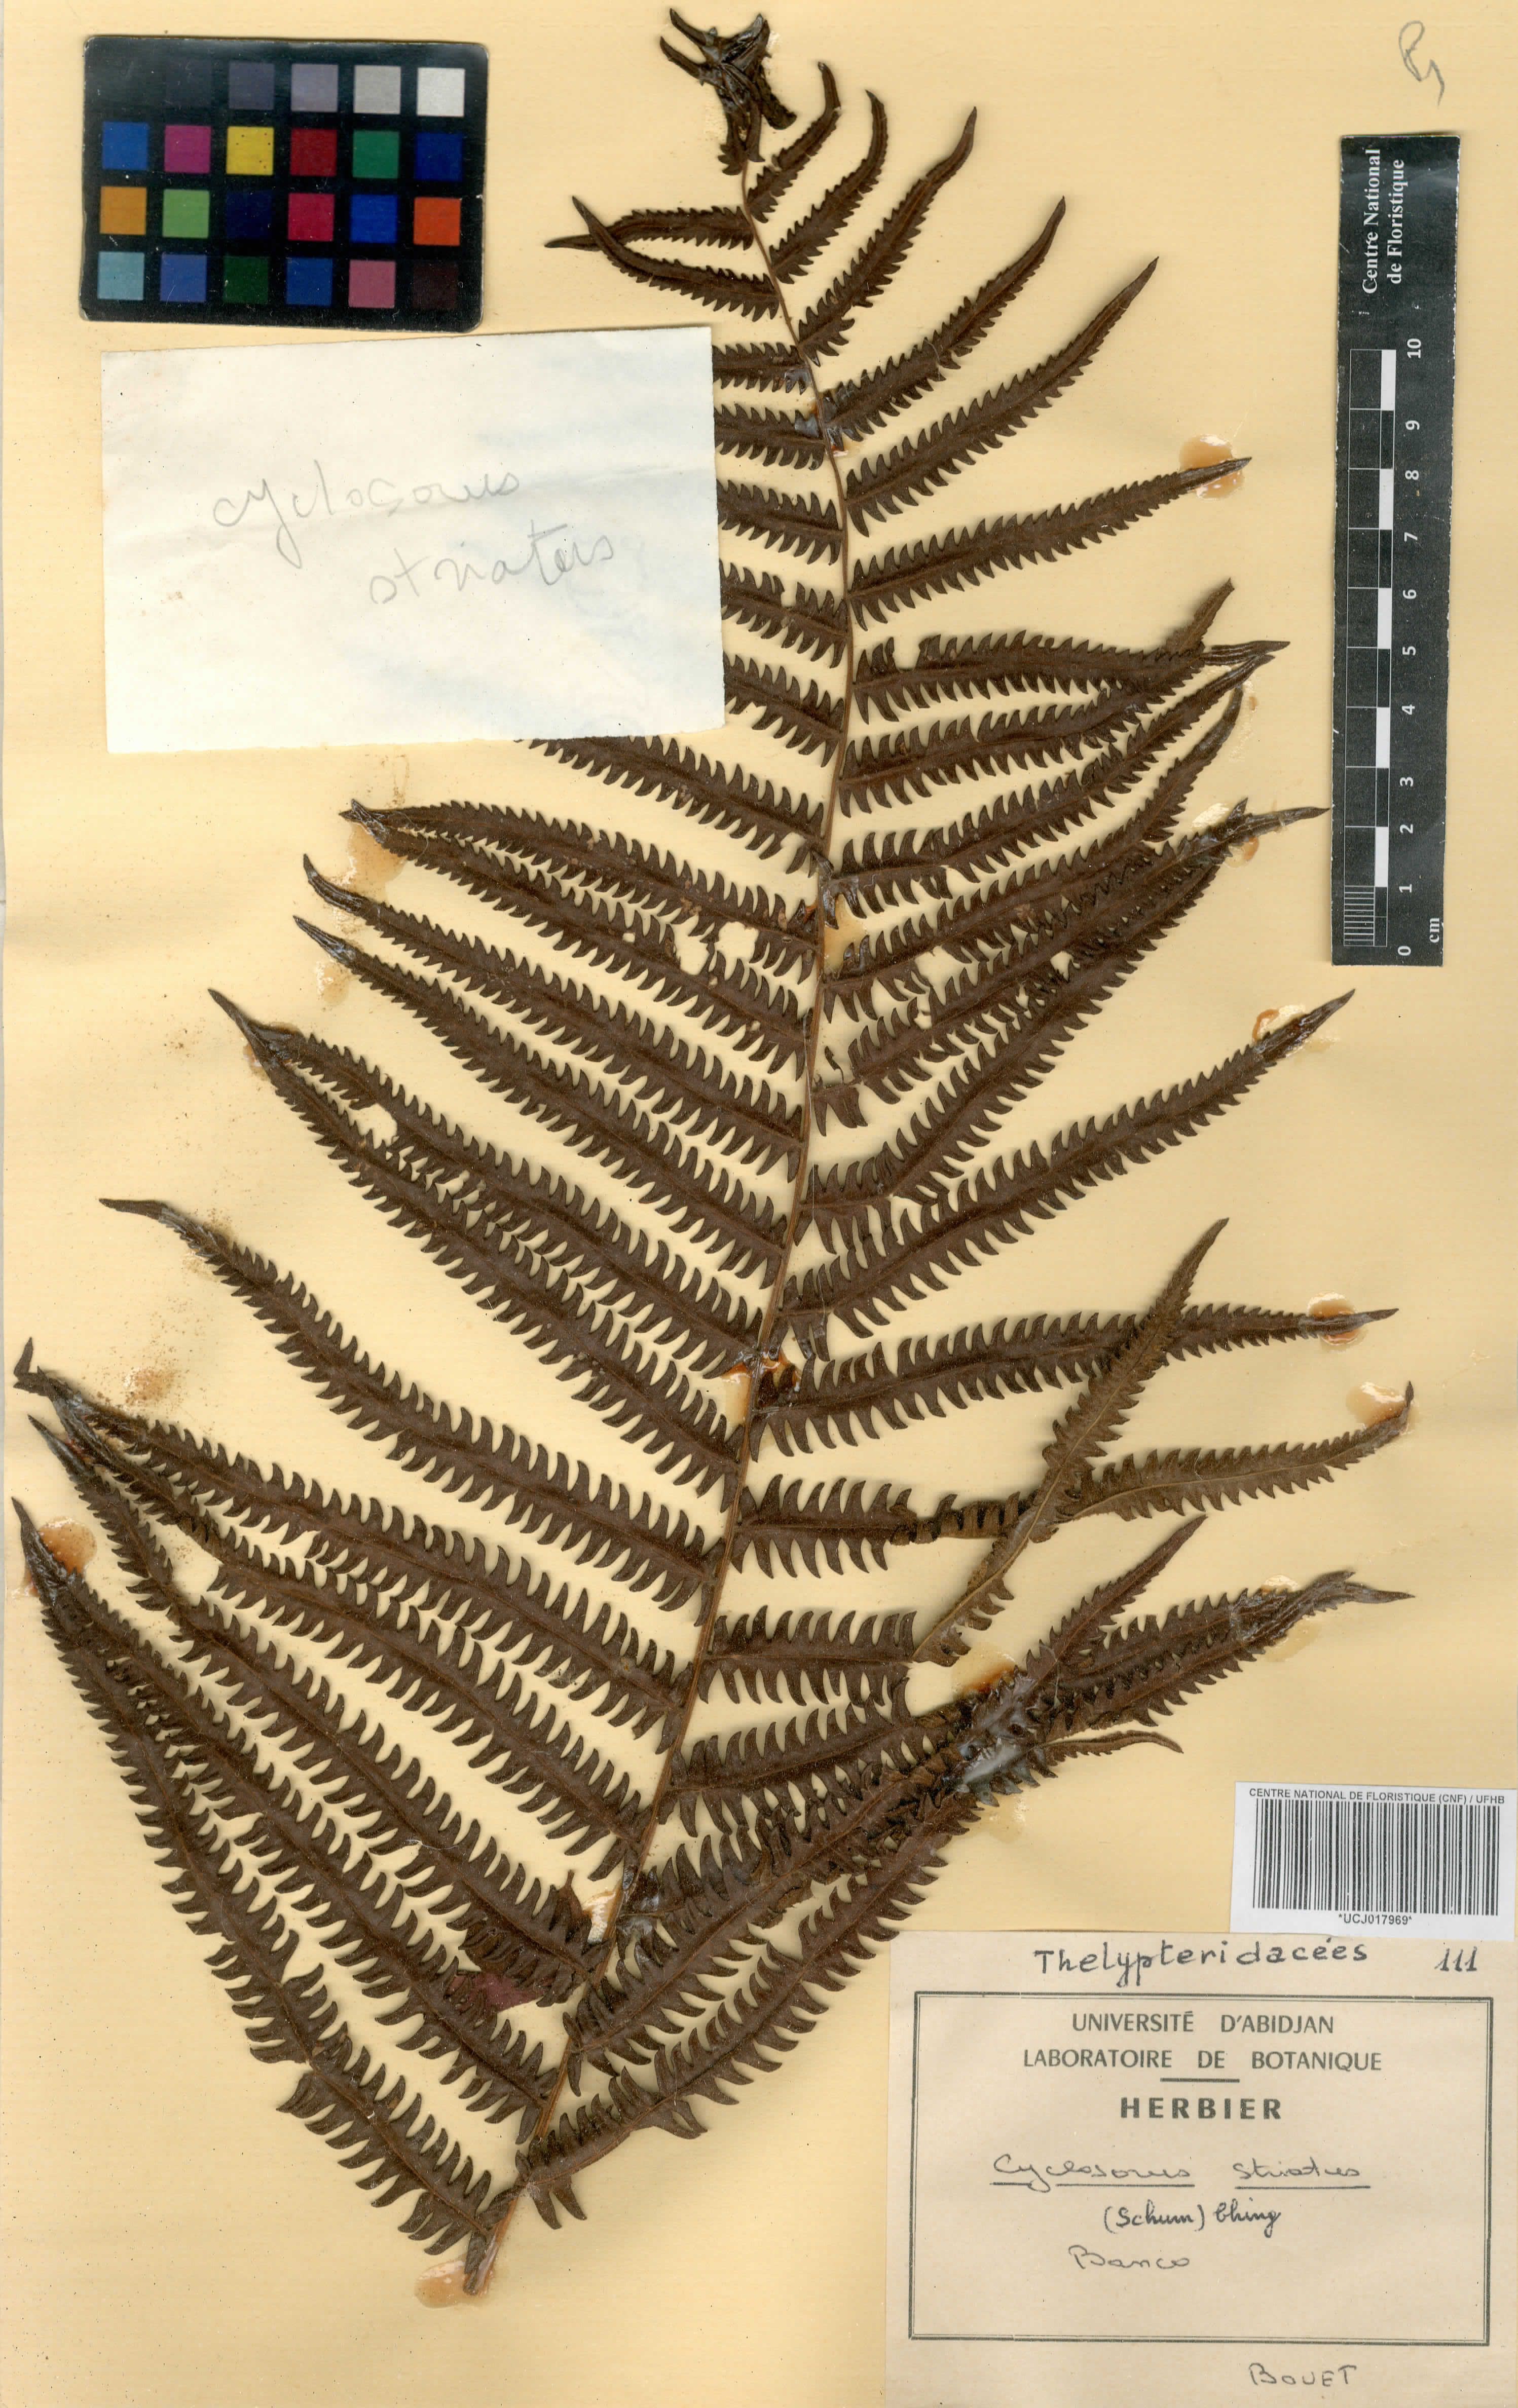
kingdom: Plantae
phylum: Tracheophyta
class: Polypodiopsida
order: Polypodiales
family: Thelypteridaceae
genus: Cyclosorus
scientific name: Cyclosorus striatus
